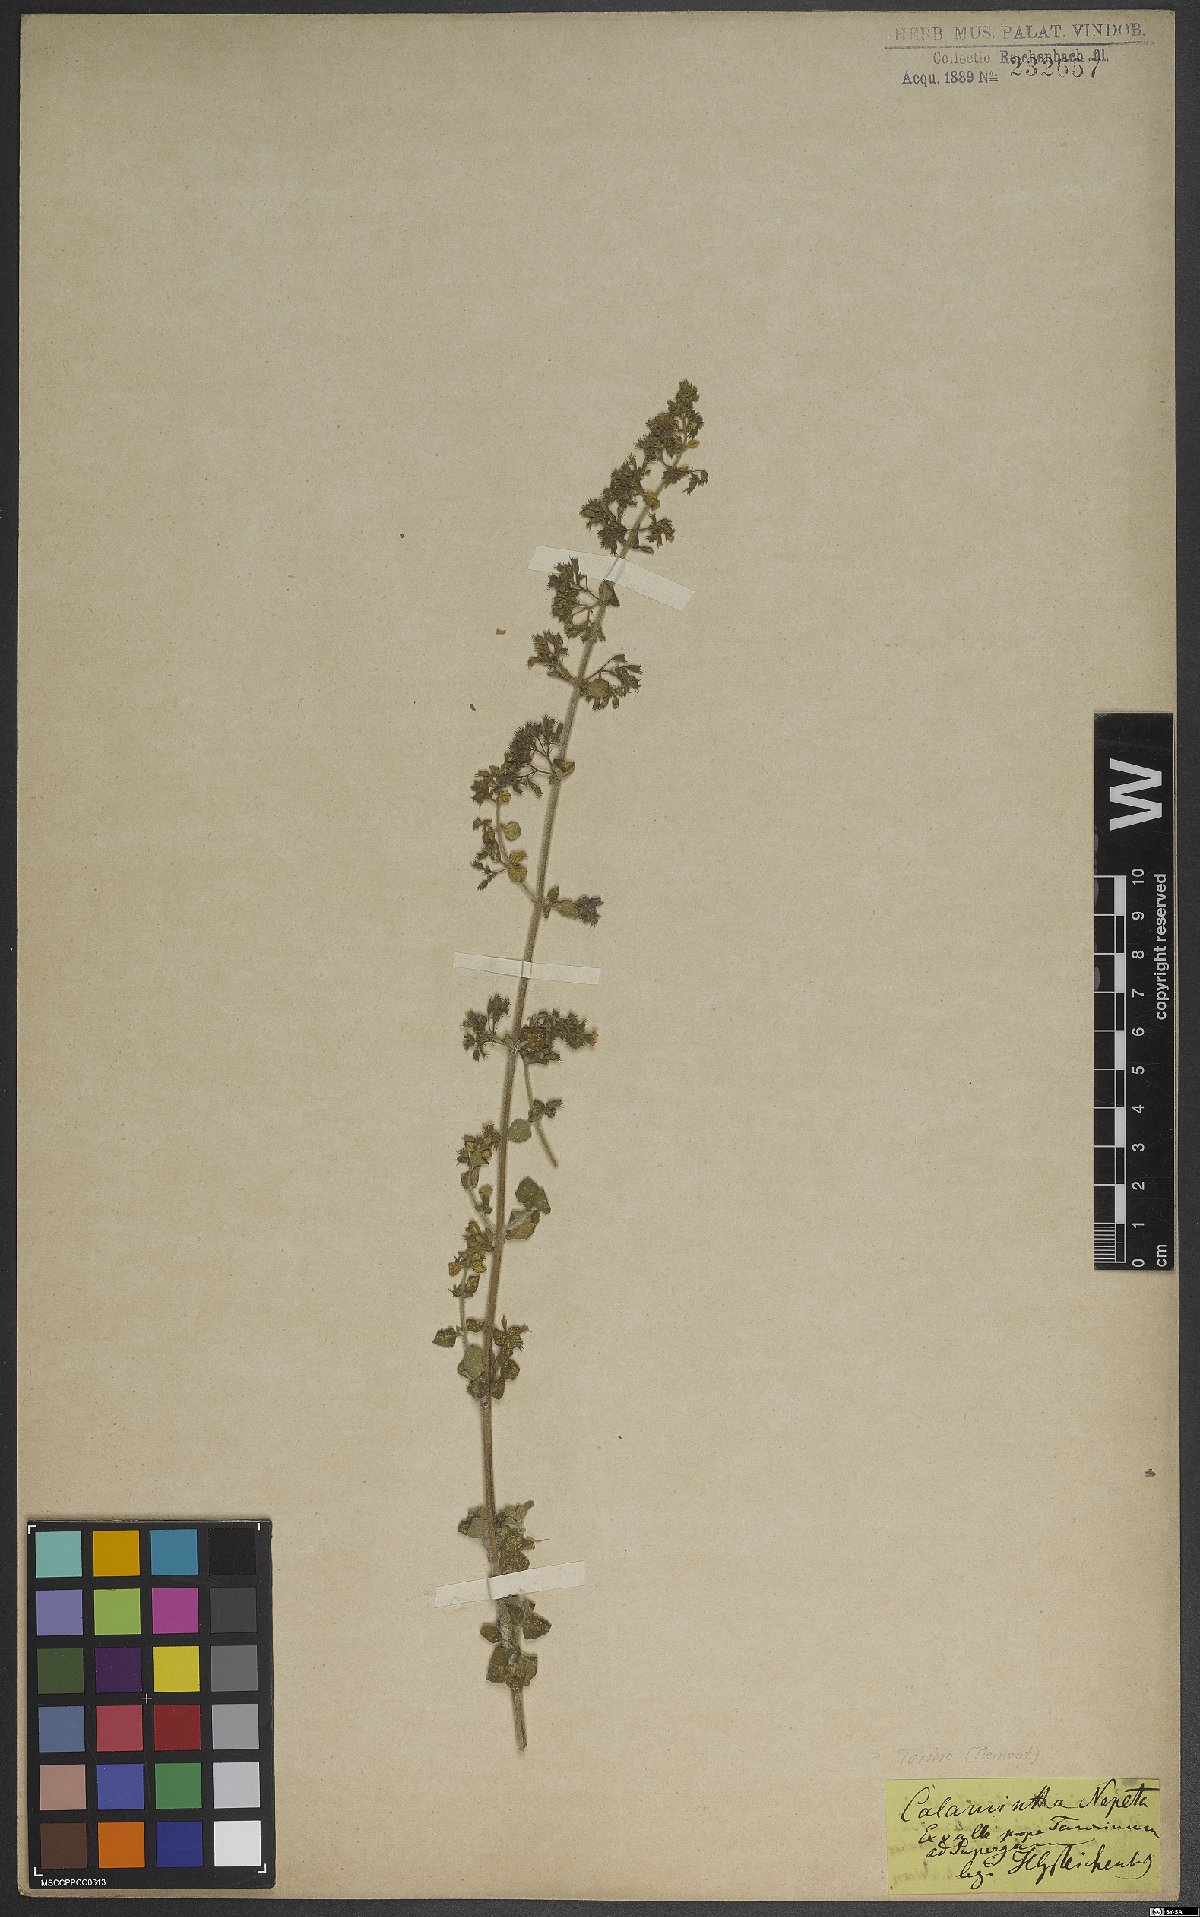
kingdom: Plantae
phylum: Tracheophyta
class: Magnoliopsida
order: Lamiales
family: Lamiaceae
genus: Clinopodium
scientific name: Clinopodium nepeta
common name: Lesser calamint
